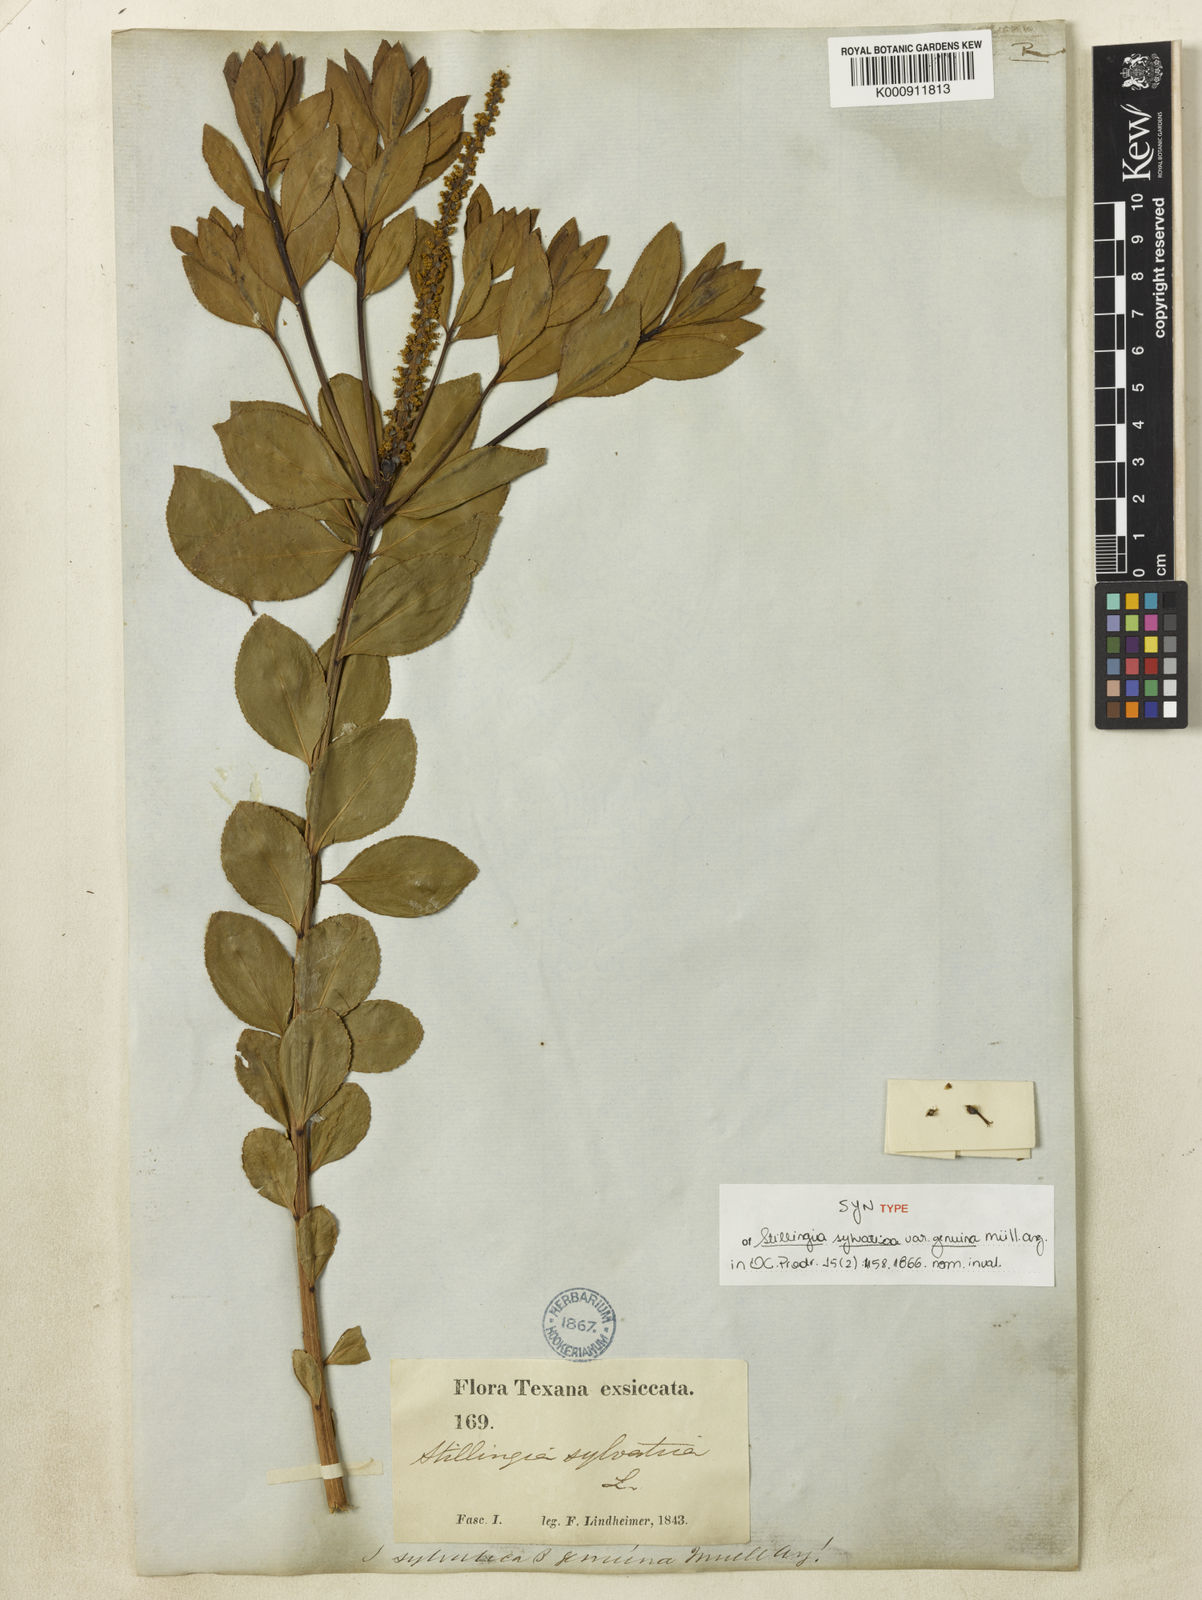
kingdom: Plantae
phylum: Tracheophyta
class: Magnoliopsida
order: Malpighiales
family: Euphorbiaceae
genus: Stillingia
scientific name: Stillingia sylvatica
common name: Queen's-delight
